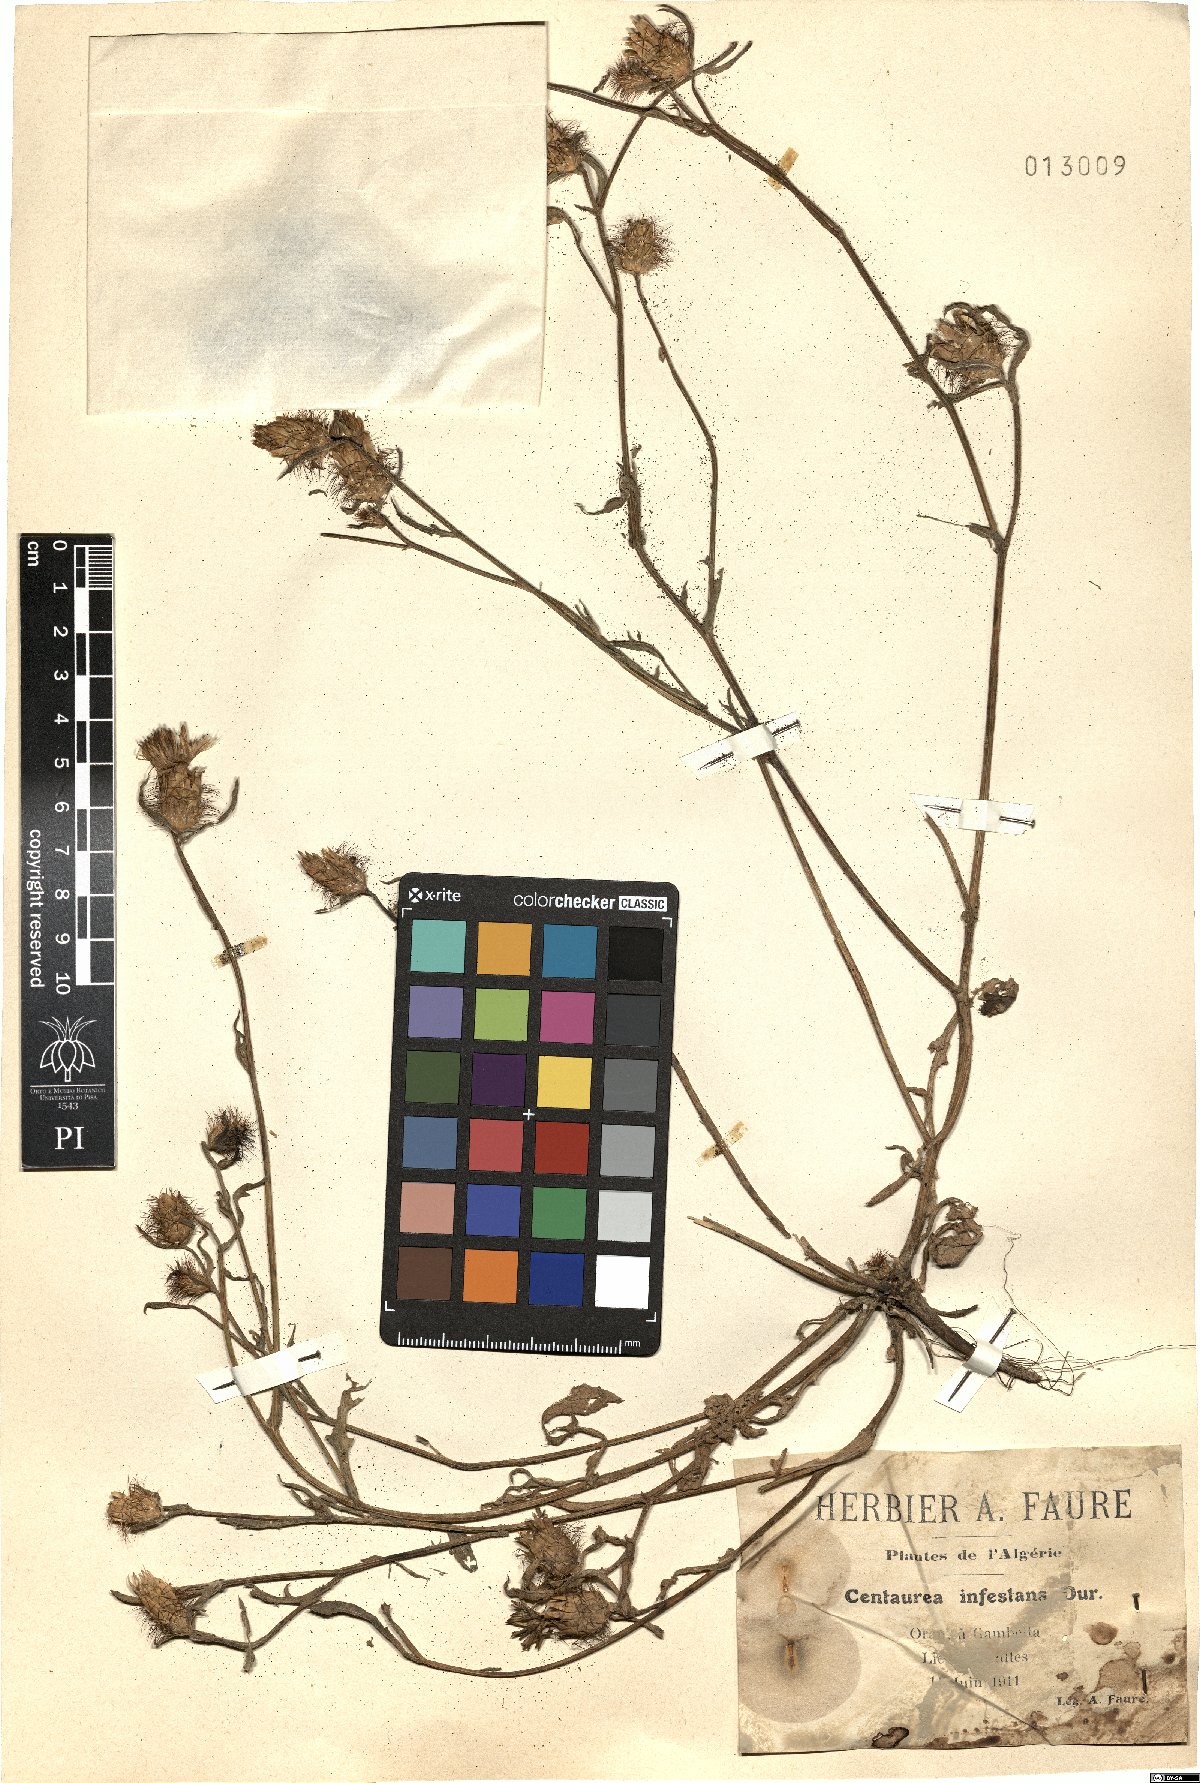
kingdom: Plantae
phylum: Tracheophyta
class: Magnoliopsida
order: Asterales
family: Asteraceae
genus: Centaurea
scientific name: Centaurea infestans
